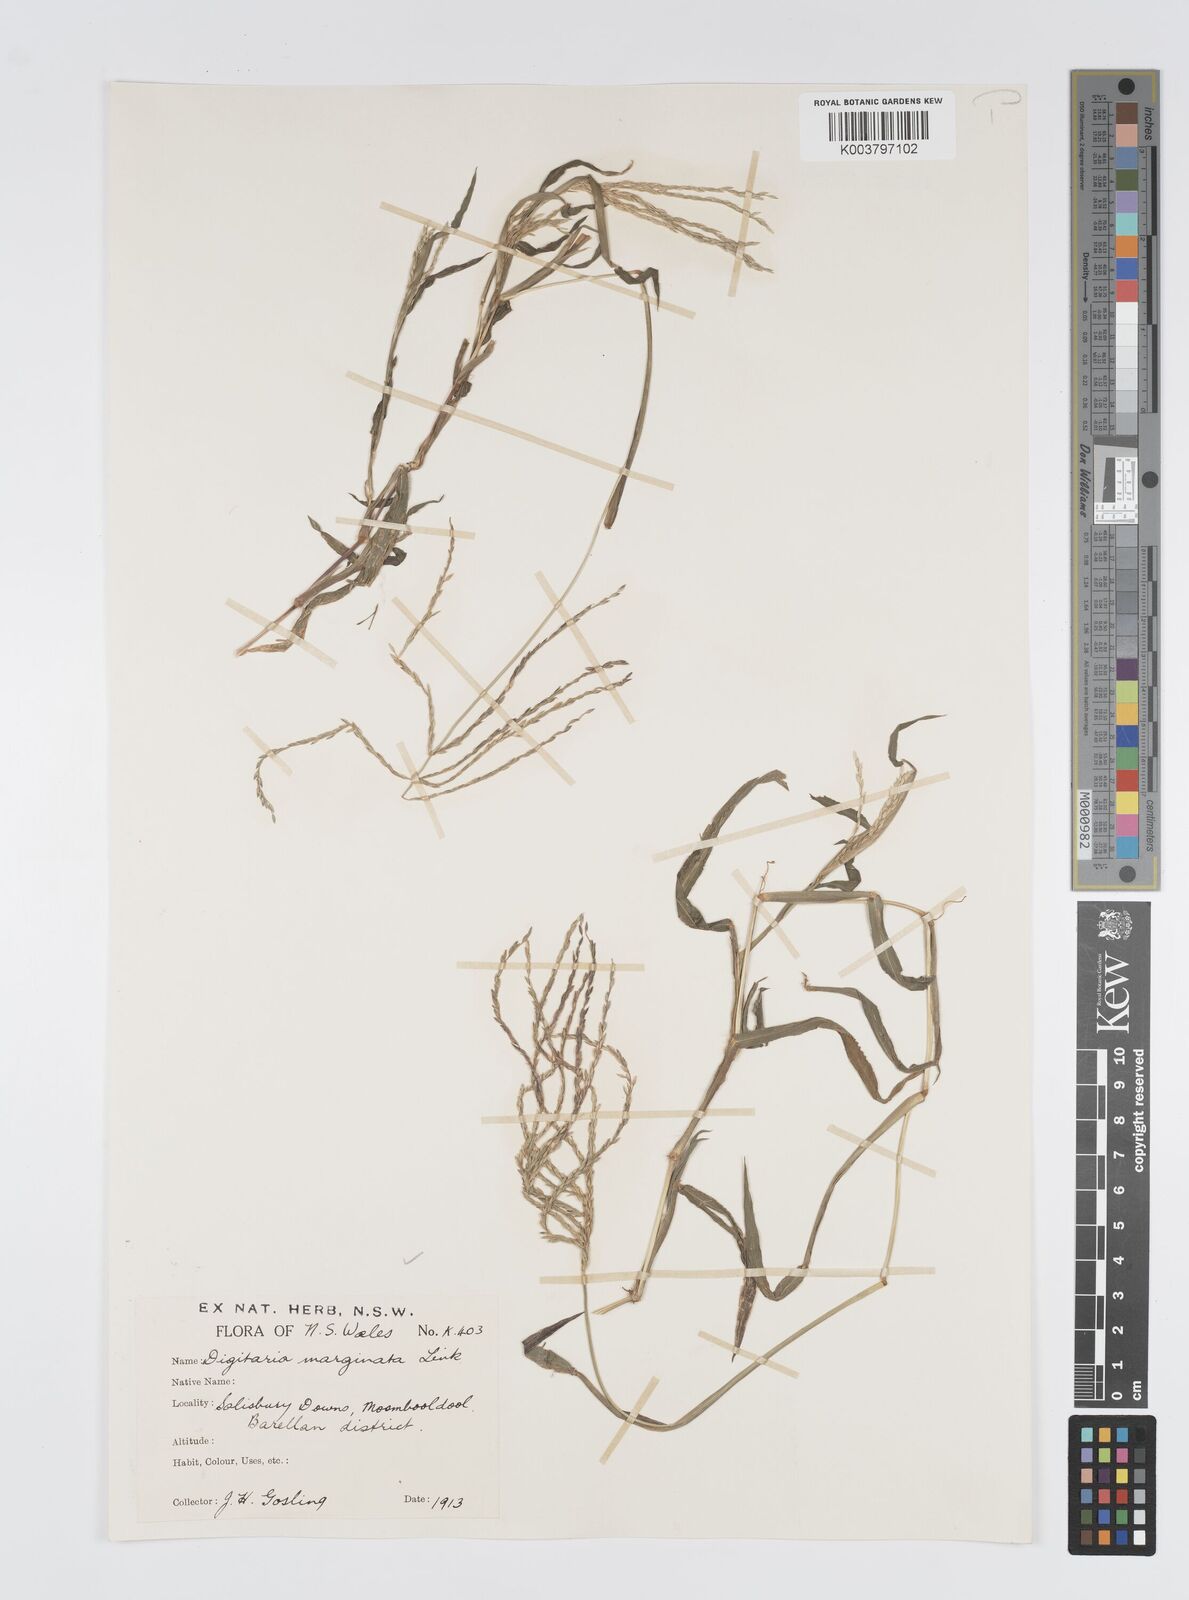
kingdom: Plantae
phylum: Tracheophyta
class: Liliopsida
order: Poales
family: Poaceae
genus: Digitaria
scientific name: Digitaria ciliaris
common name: Tropical finger-grass
